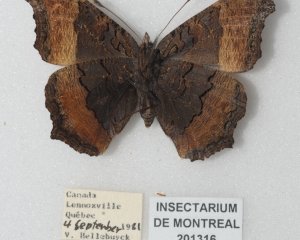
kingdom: Animalia
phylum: Arthropoda
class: Insecta
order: Lepidoptera
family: Nymphalidae
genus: Aglais
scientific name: Aglais milberti
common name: Milbert's Tortoiseshell
